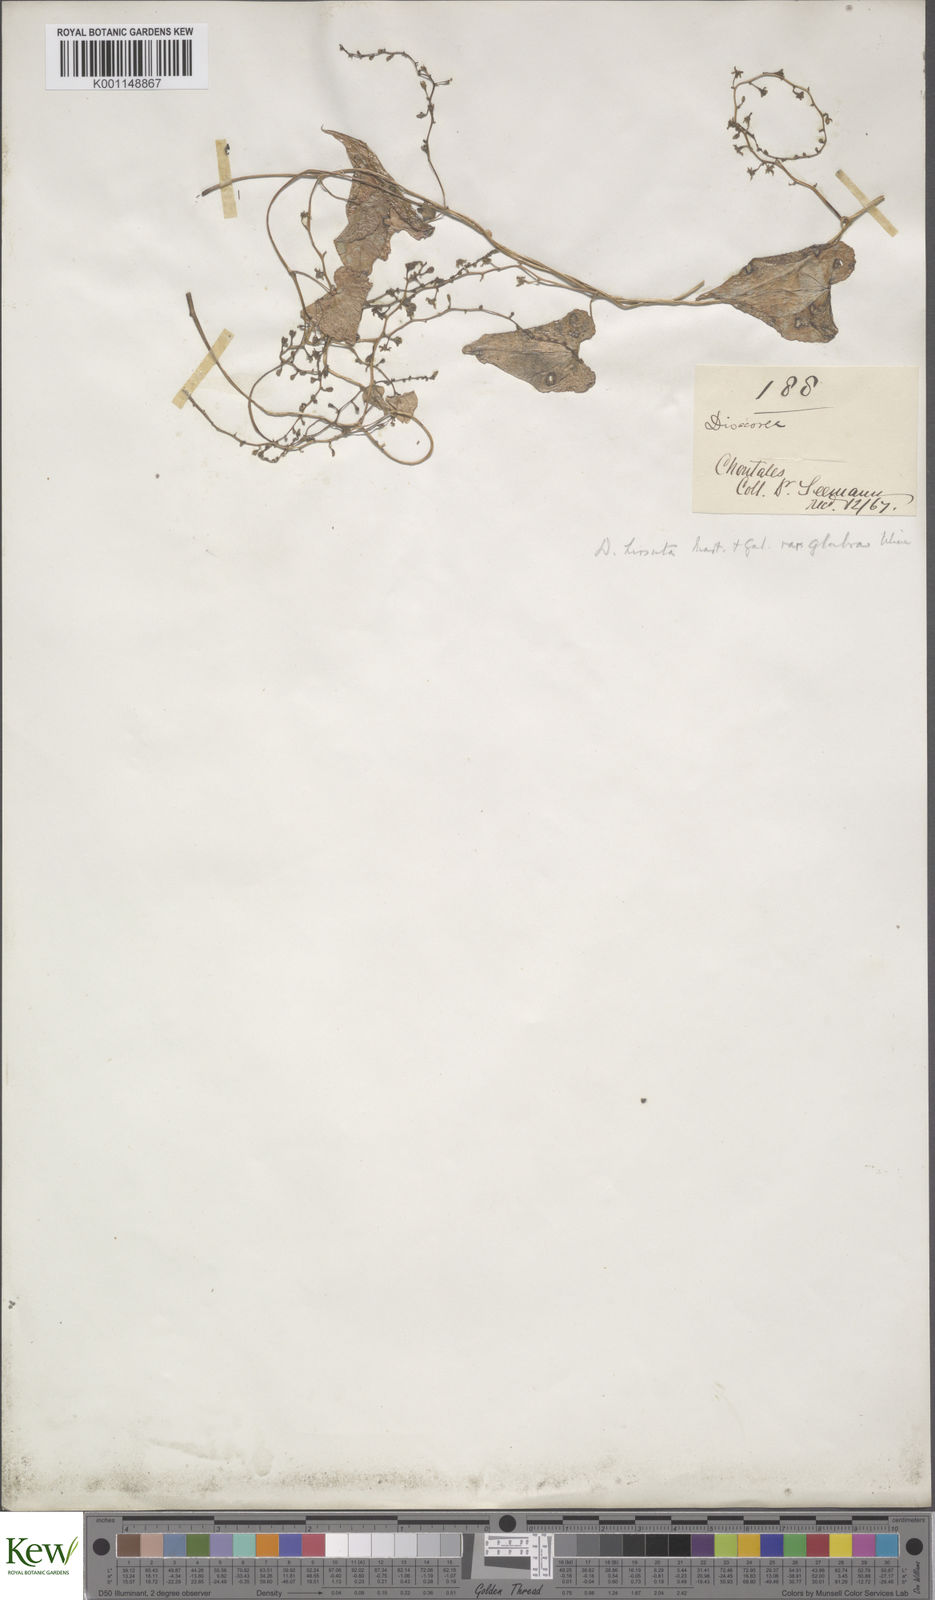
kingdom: Plantae
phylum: Tracheophyta
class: Liliopsida
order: Dioscoreales
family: Dioscoreaceae
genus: Dioscorea
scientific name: Dioscorea convolvulacea
